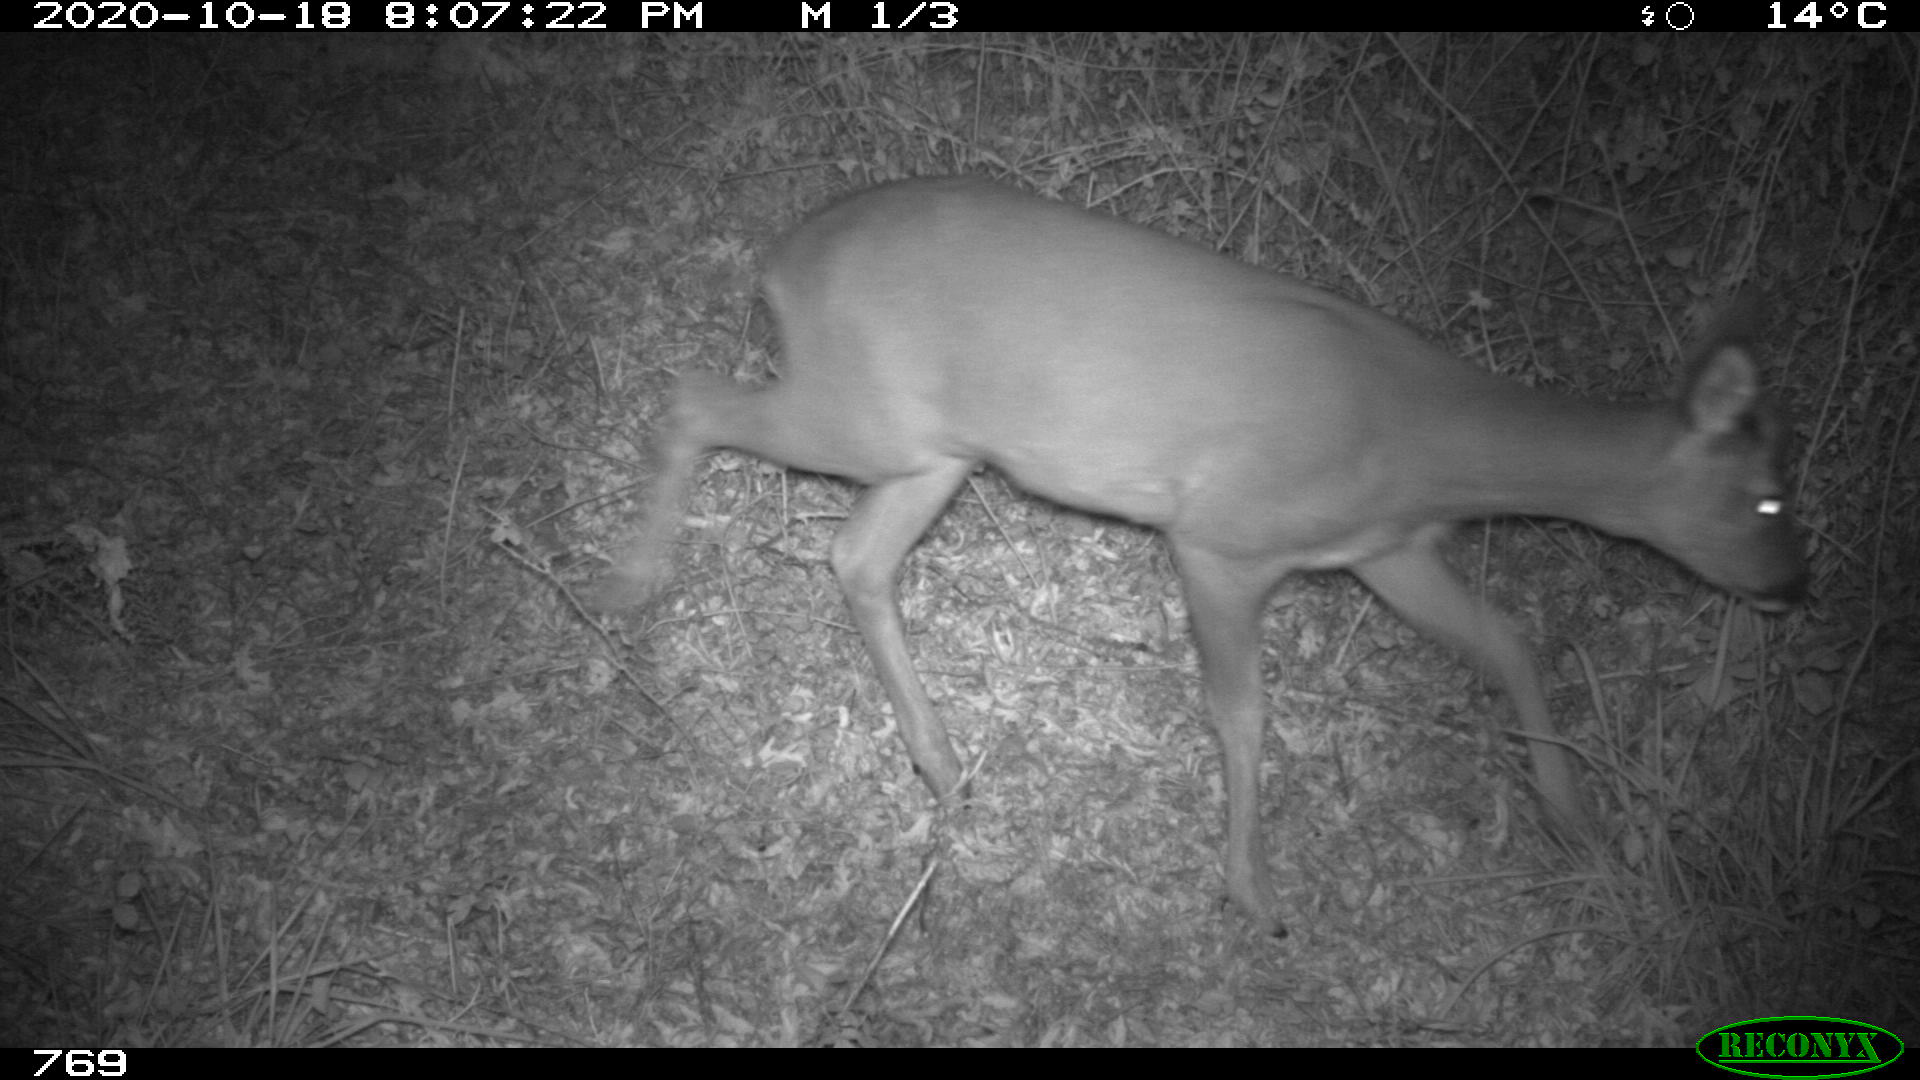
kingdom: Animalia
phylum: Chordata
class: Mammalia
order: Artiodactyla
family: Cervidae
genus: Capreolus
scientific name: Capreolus capreolus
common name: Western roe deer
